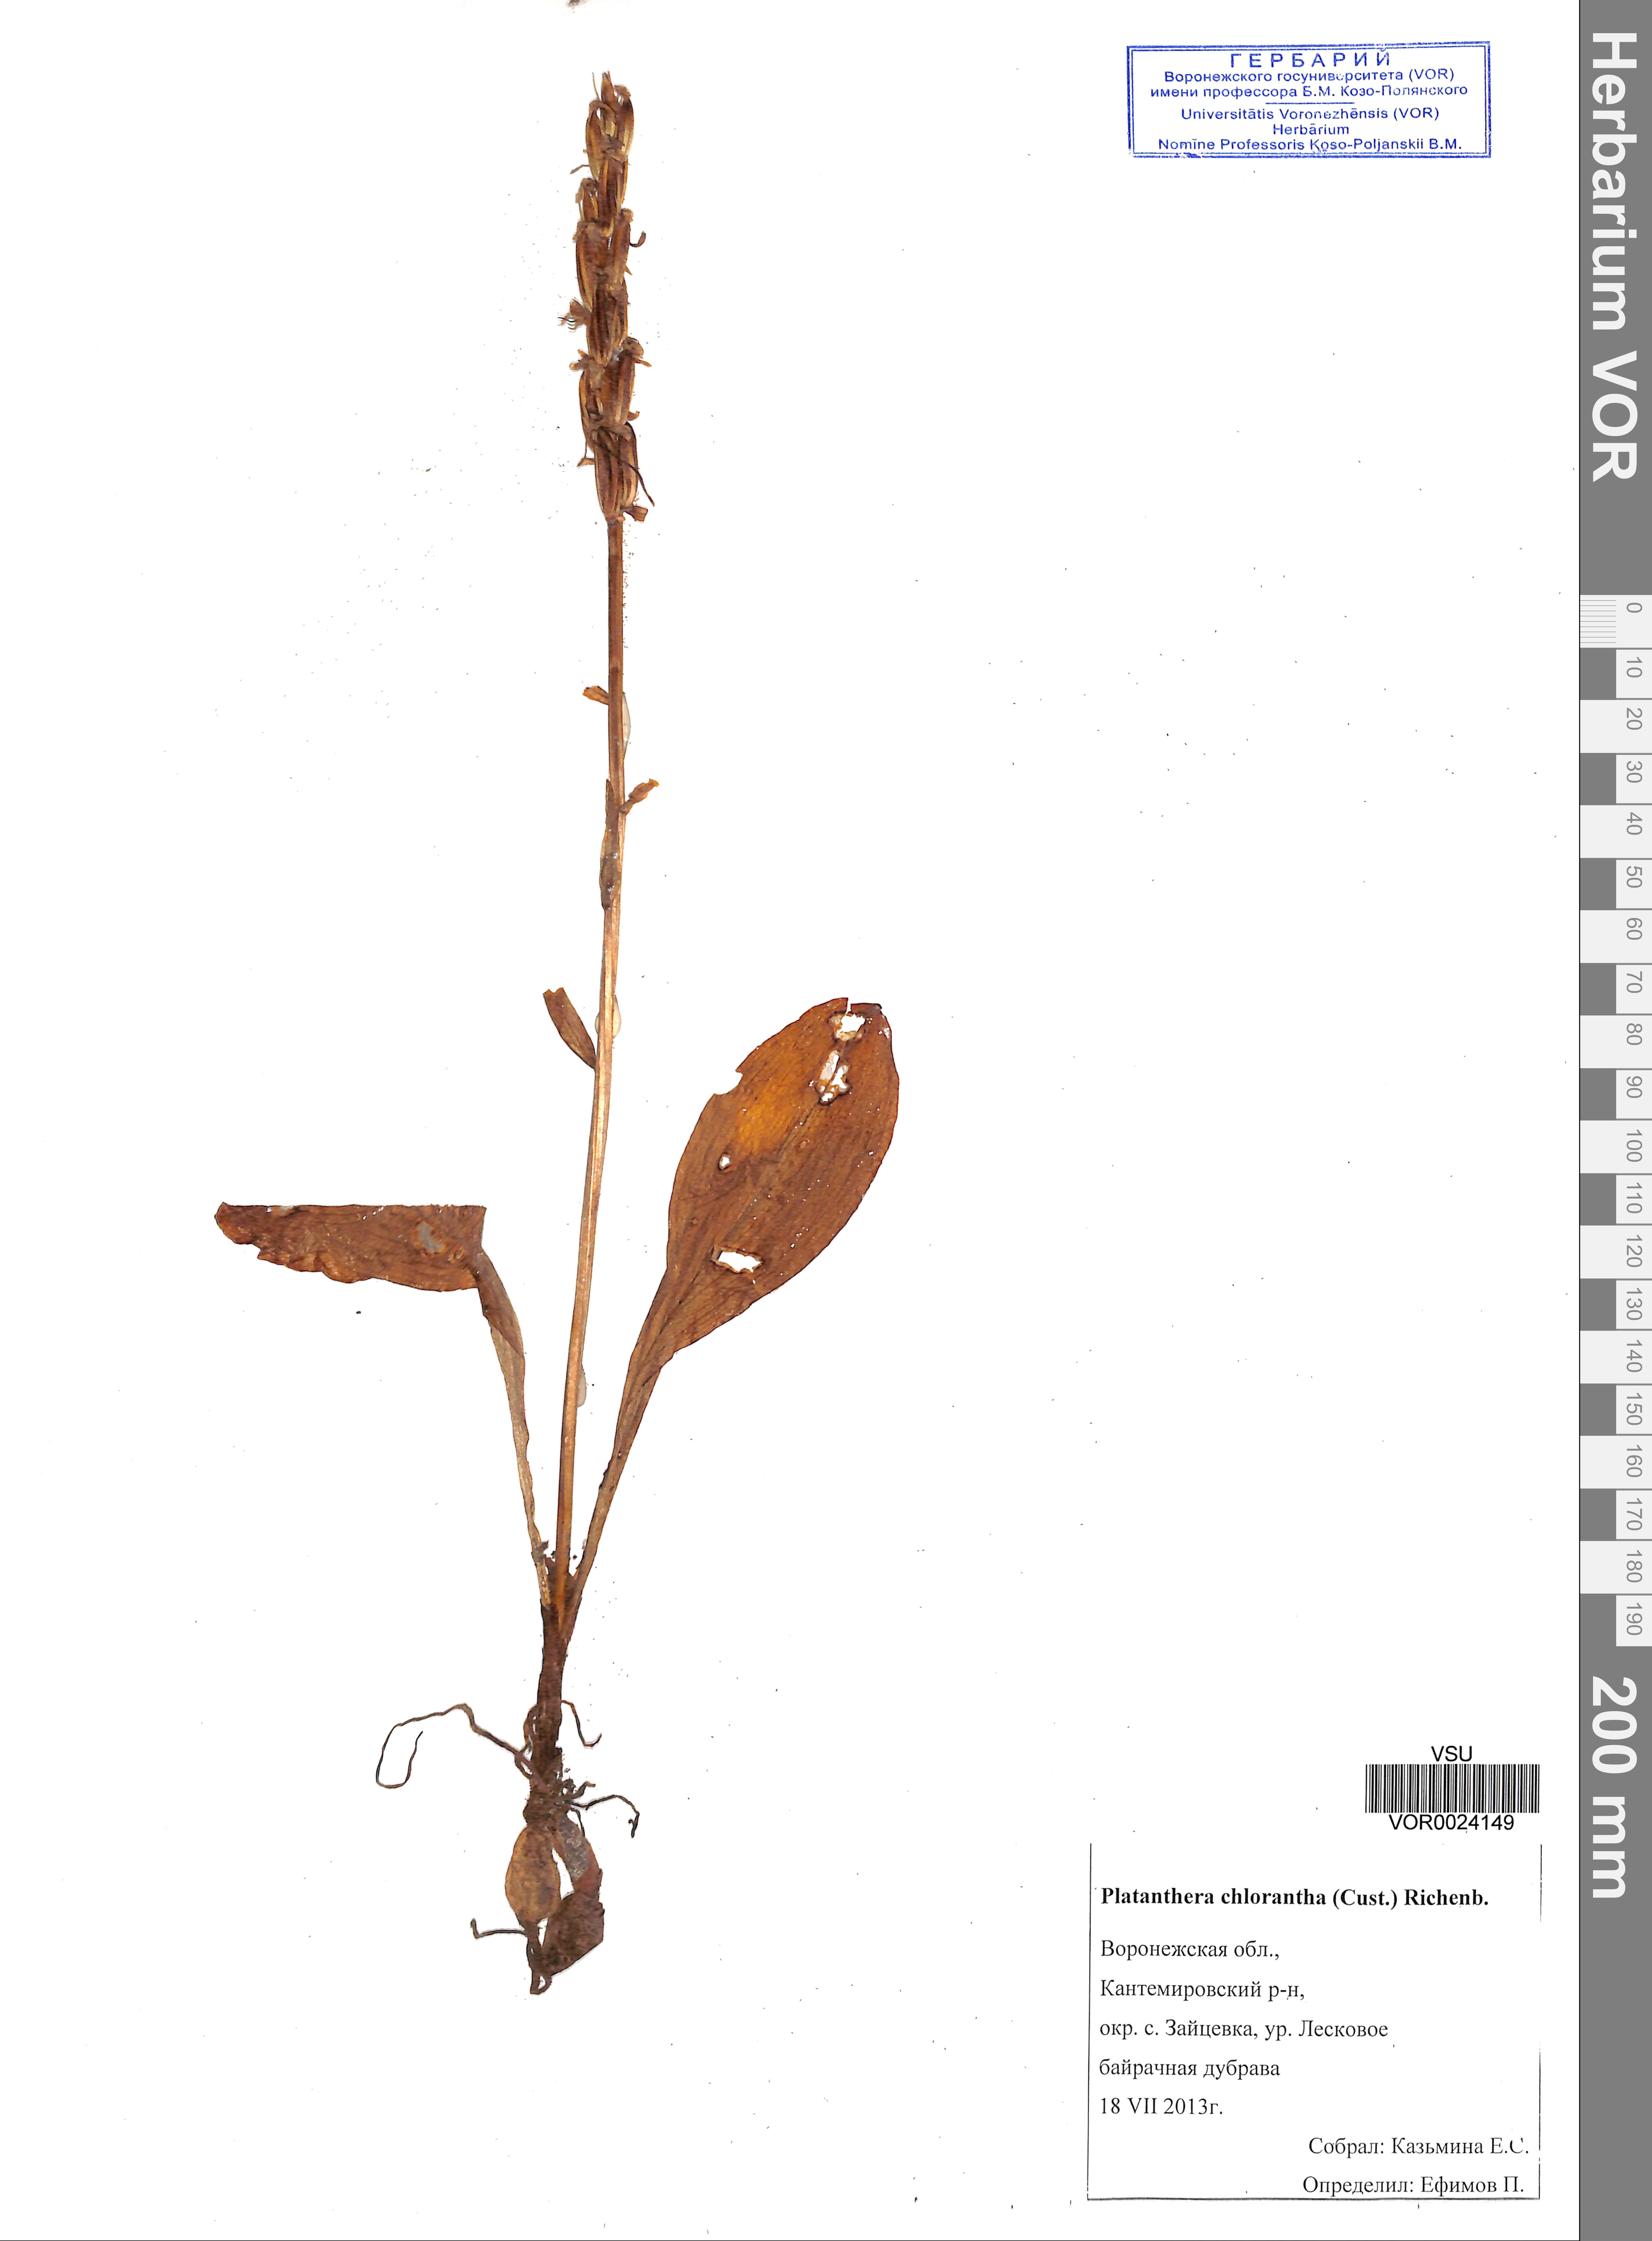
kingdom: Plantae
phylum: Tracheophyta
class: Liliopsida
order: Asparagales
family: Orchidaceae
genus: Platanthera
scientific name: Platanthera chlorantha
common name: Greater butterfly-orchid
